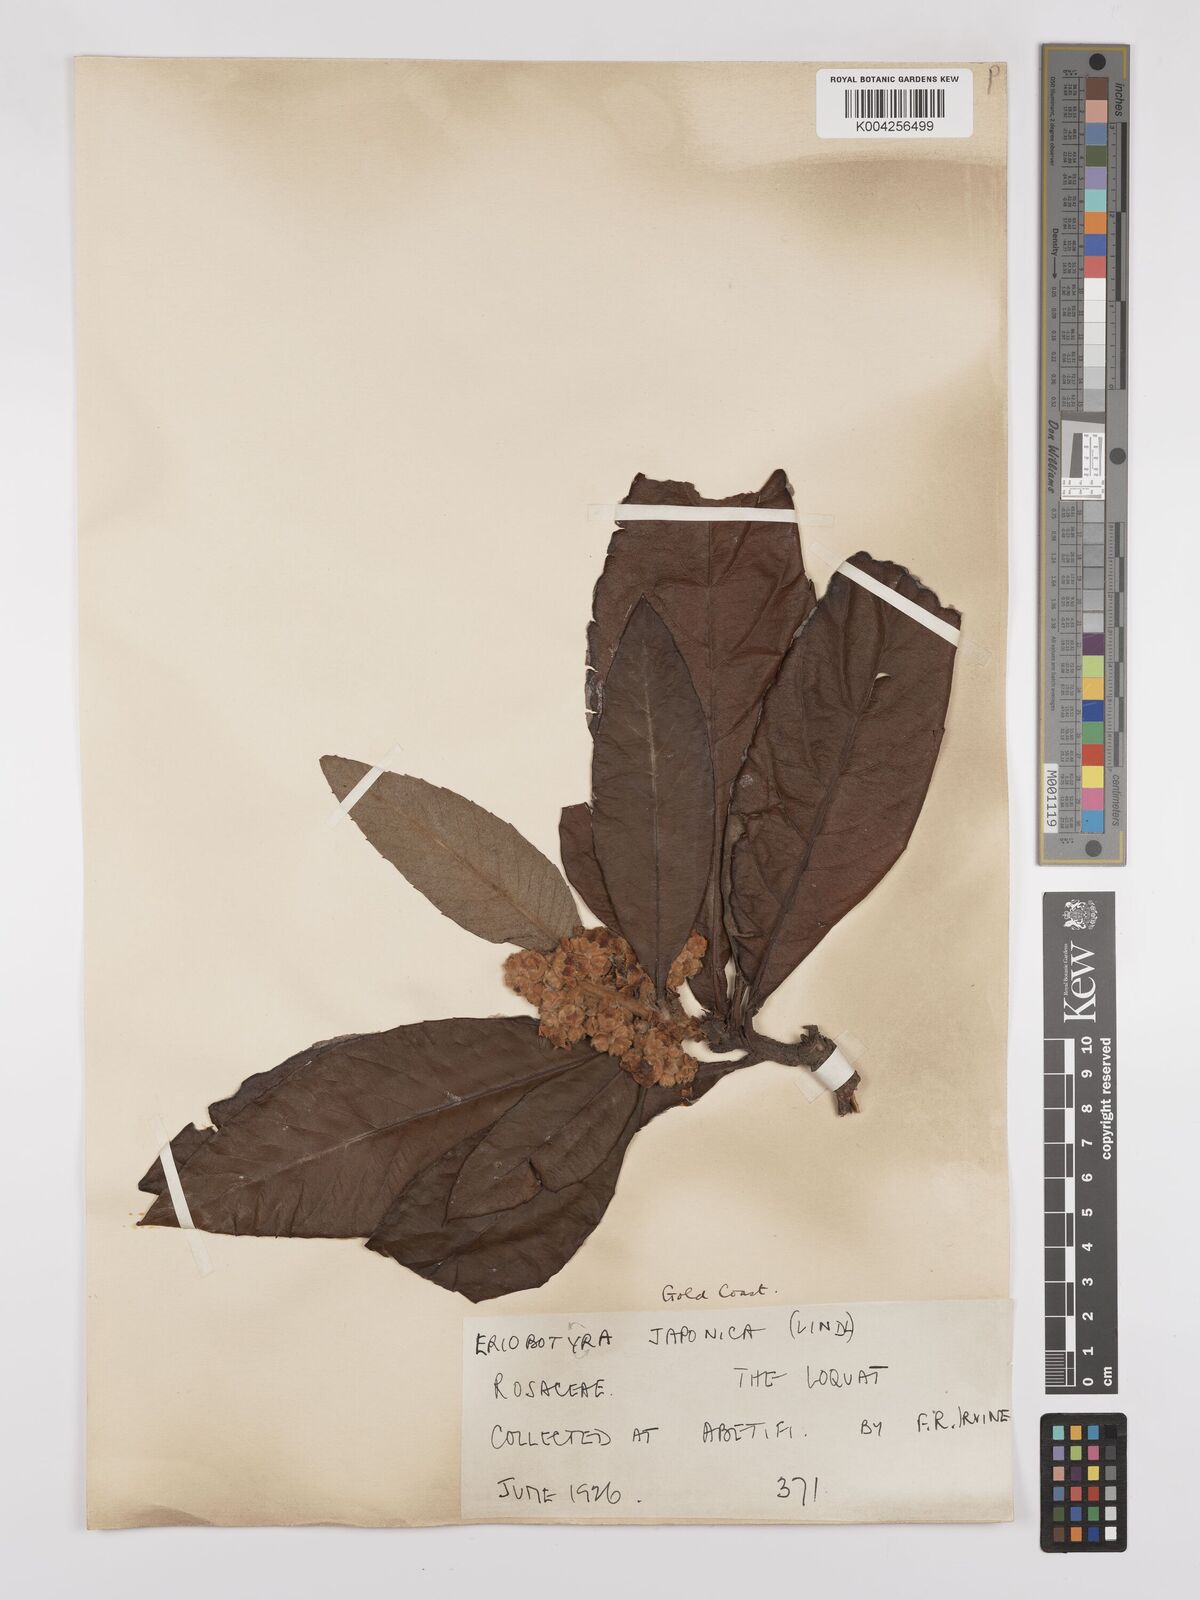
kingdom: Plantae
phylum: Tracheophyta
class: Magnoliopsida
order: Rosales
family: Rosaceae
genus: Rhaphiolepis
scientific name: Rhaphiolepis bibas
